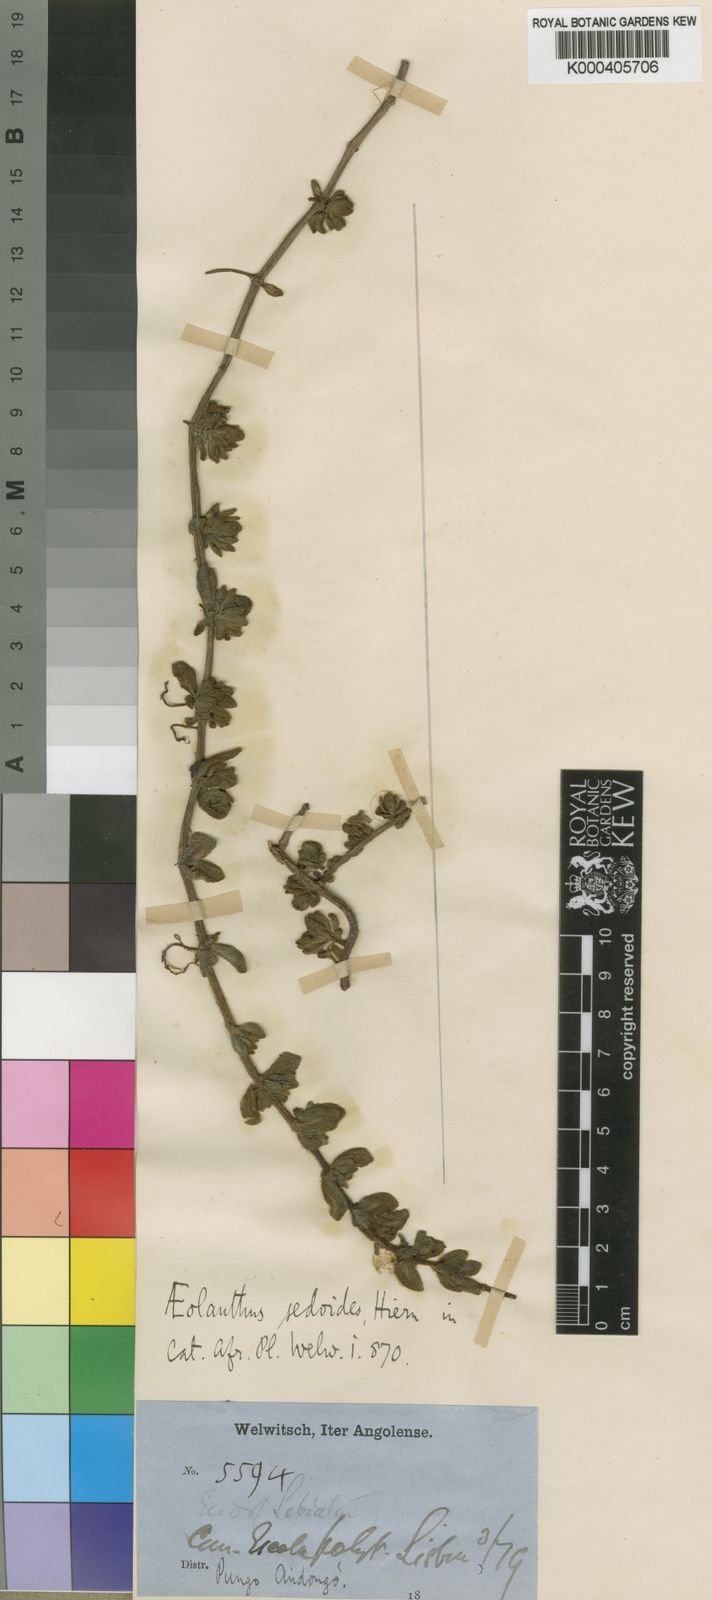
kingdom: Plantae
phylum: Tracheophyta
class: Magnoliopsida
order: Lamiales
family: Lamiaceae
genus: Aeollanthus
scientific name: Aeollanthus sedoides
